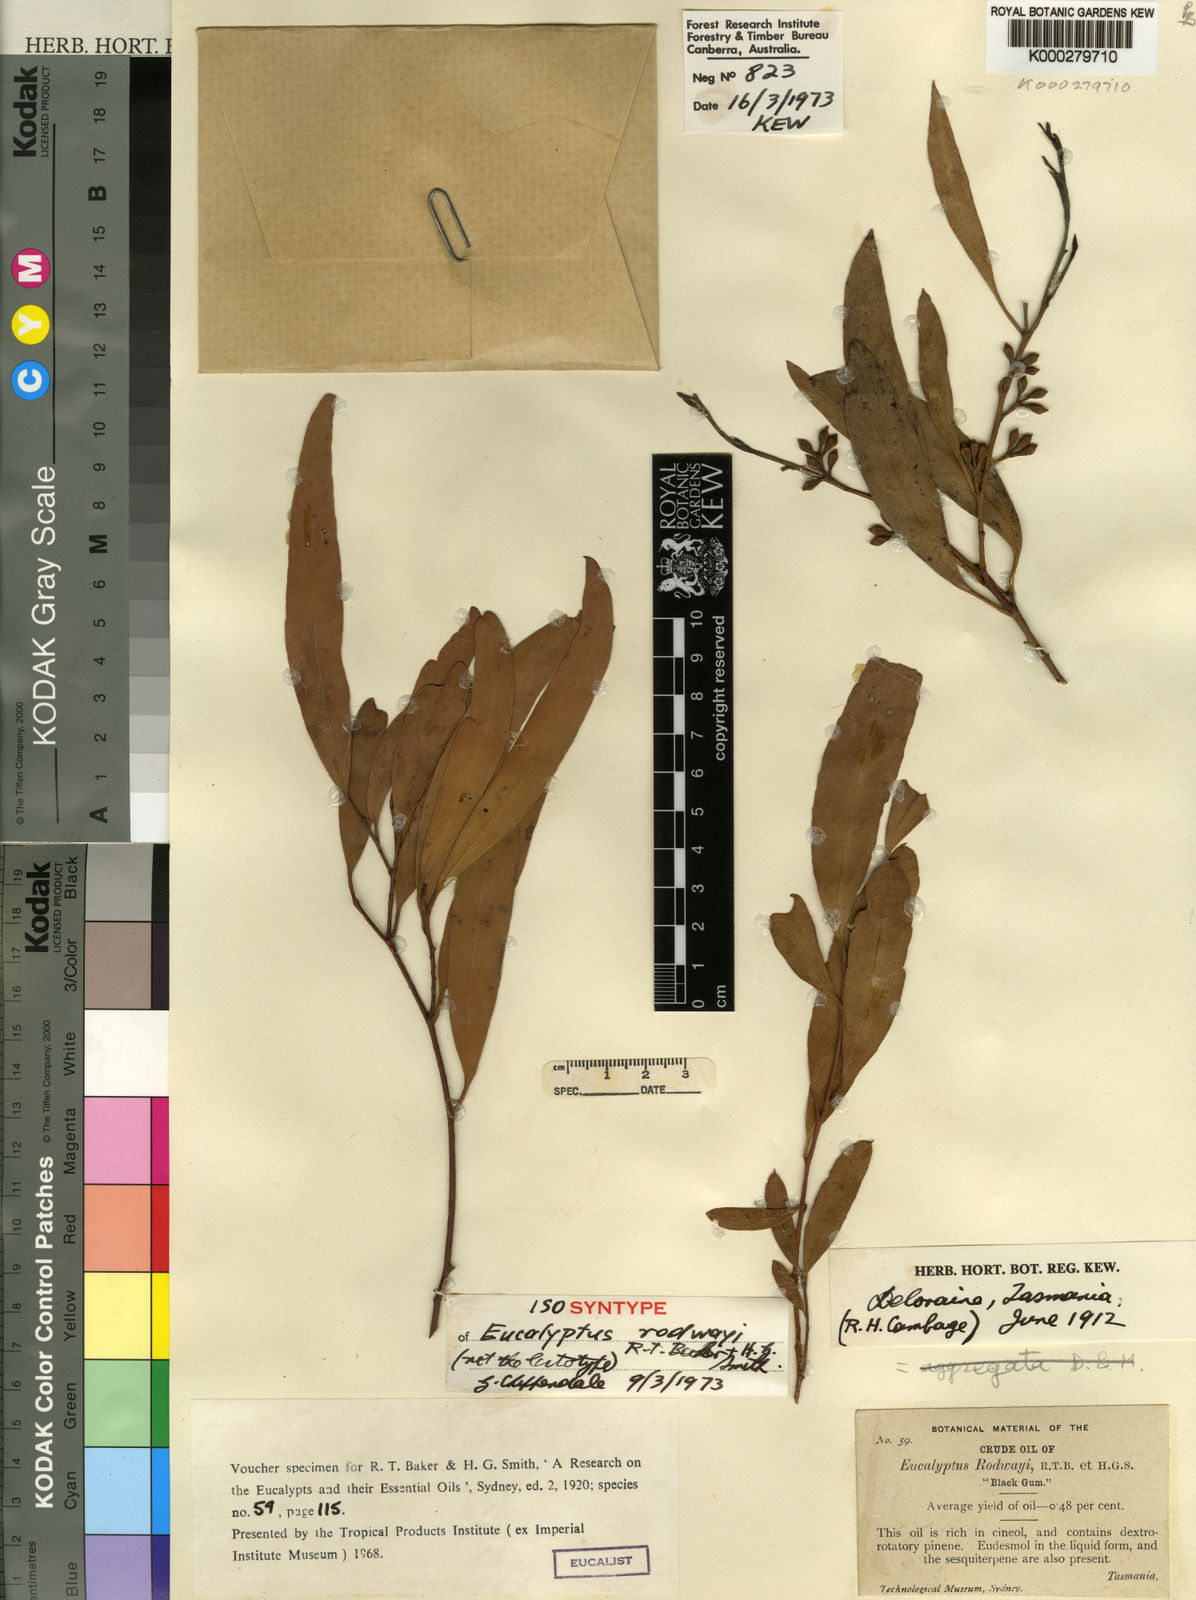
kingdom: Plantae
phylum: Tracheophyta
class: Magnoliopsida
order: Myrtales
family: Myrtaceae
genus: Eucalyptus
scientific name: Eucalyptus rodwayi
